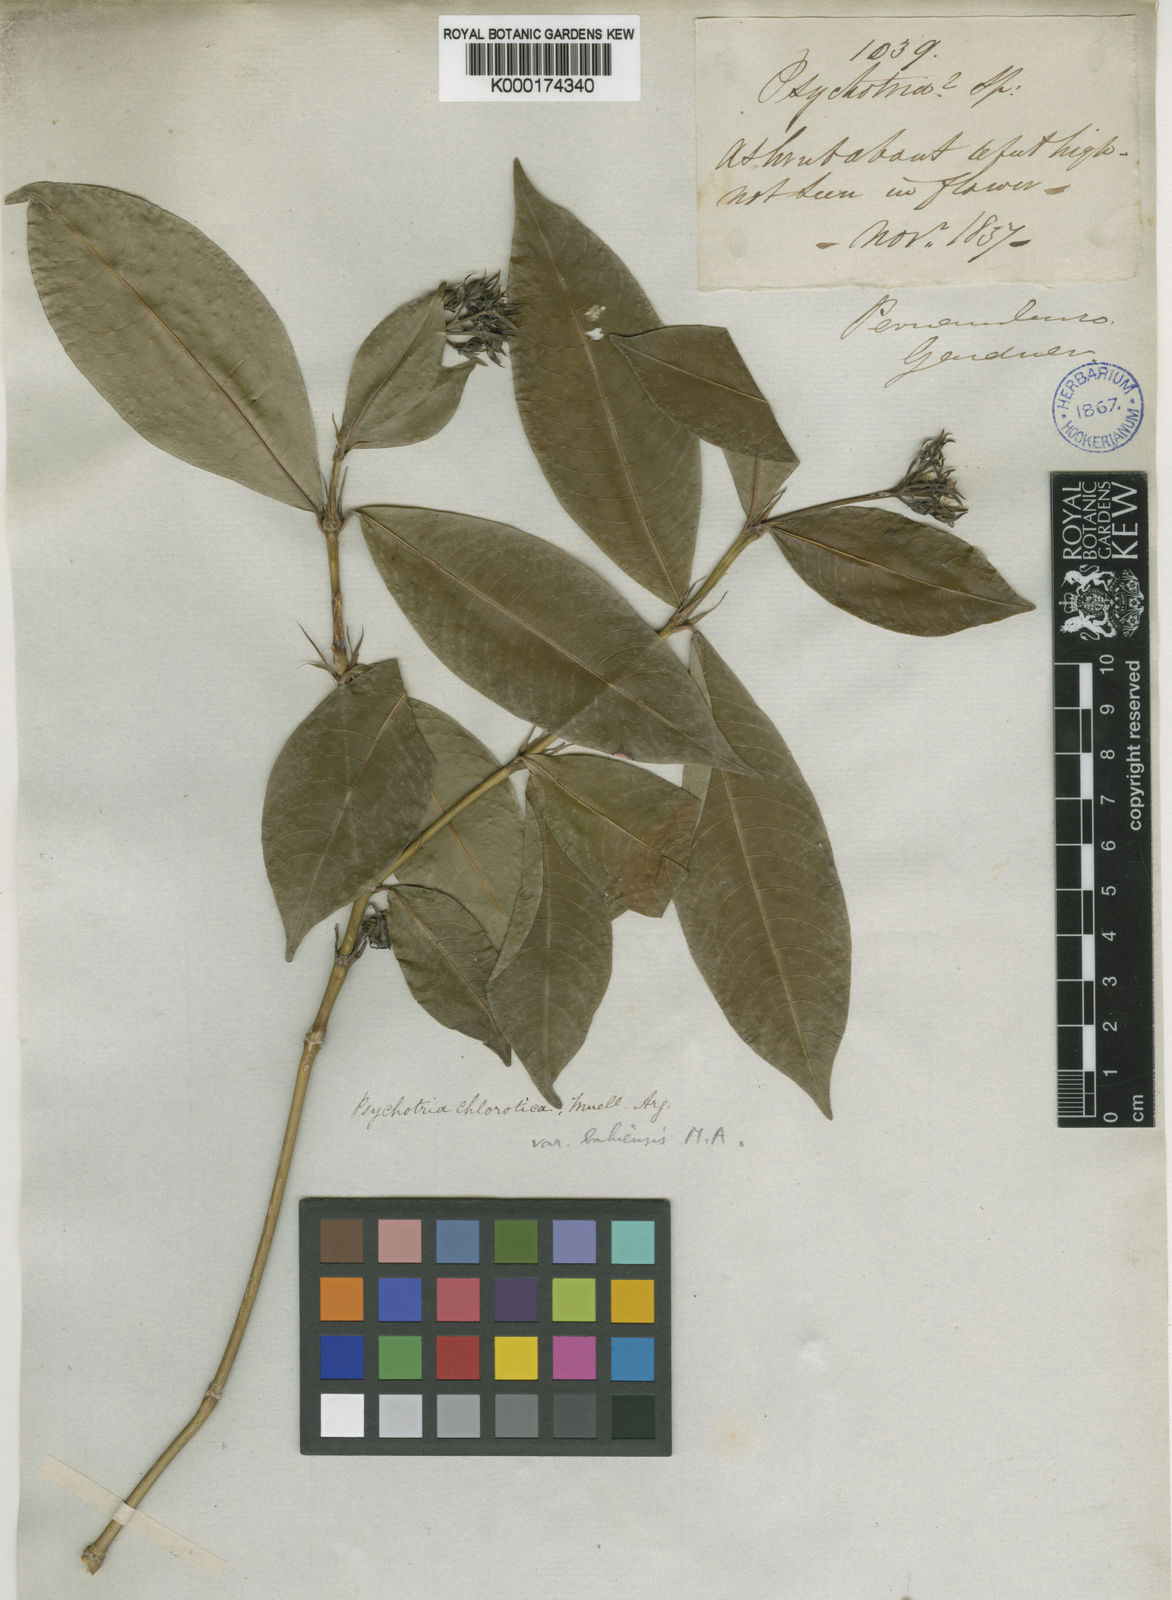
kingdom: Plantae
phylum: Tracheophyta
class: Magnoliopsida
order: Gentianales
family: Rubiaceae
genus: Palicourea
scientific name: Palicourea violacea
